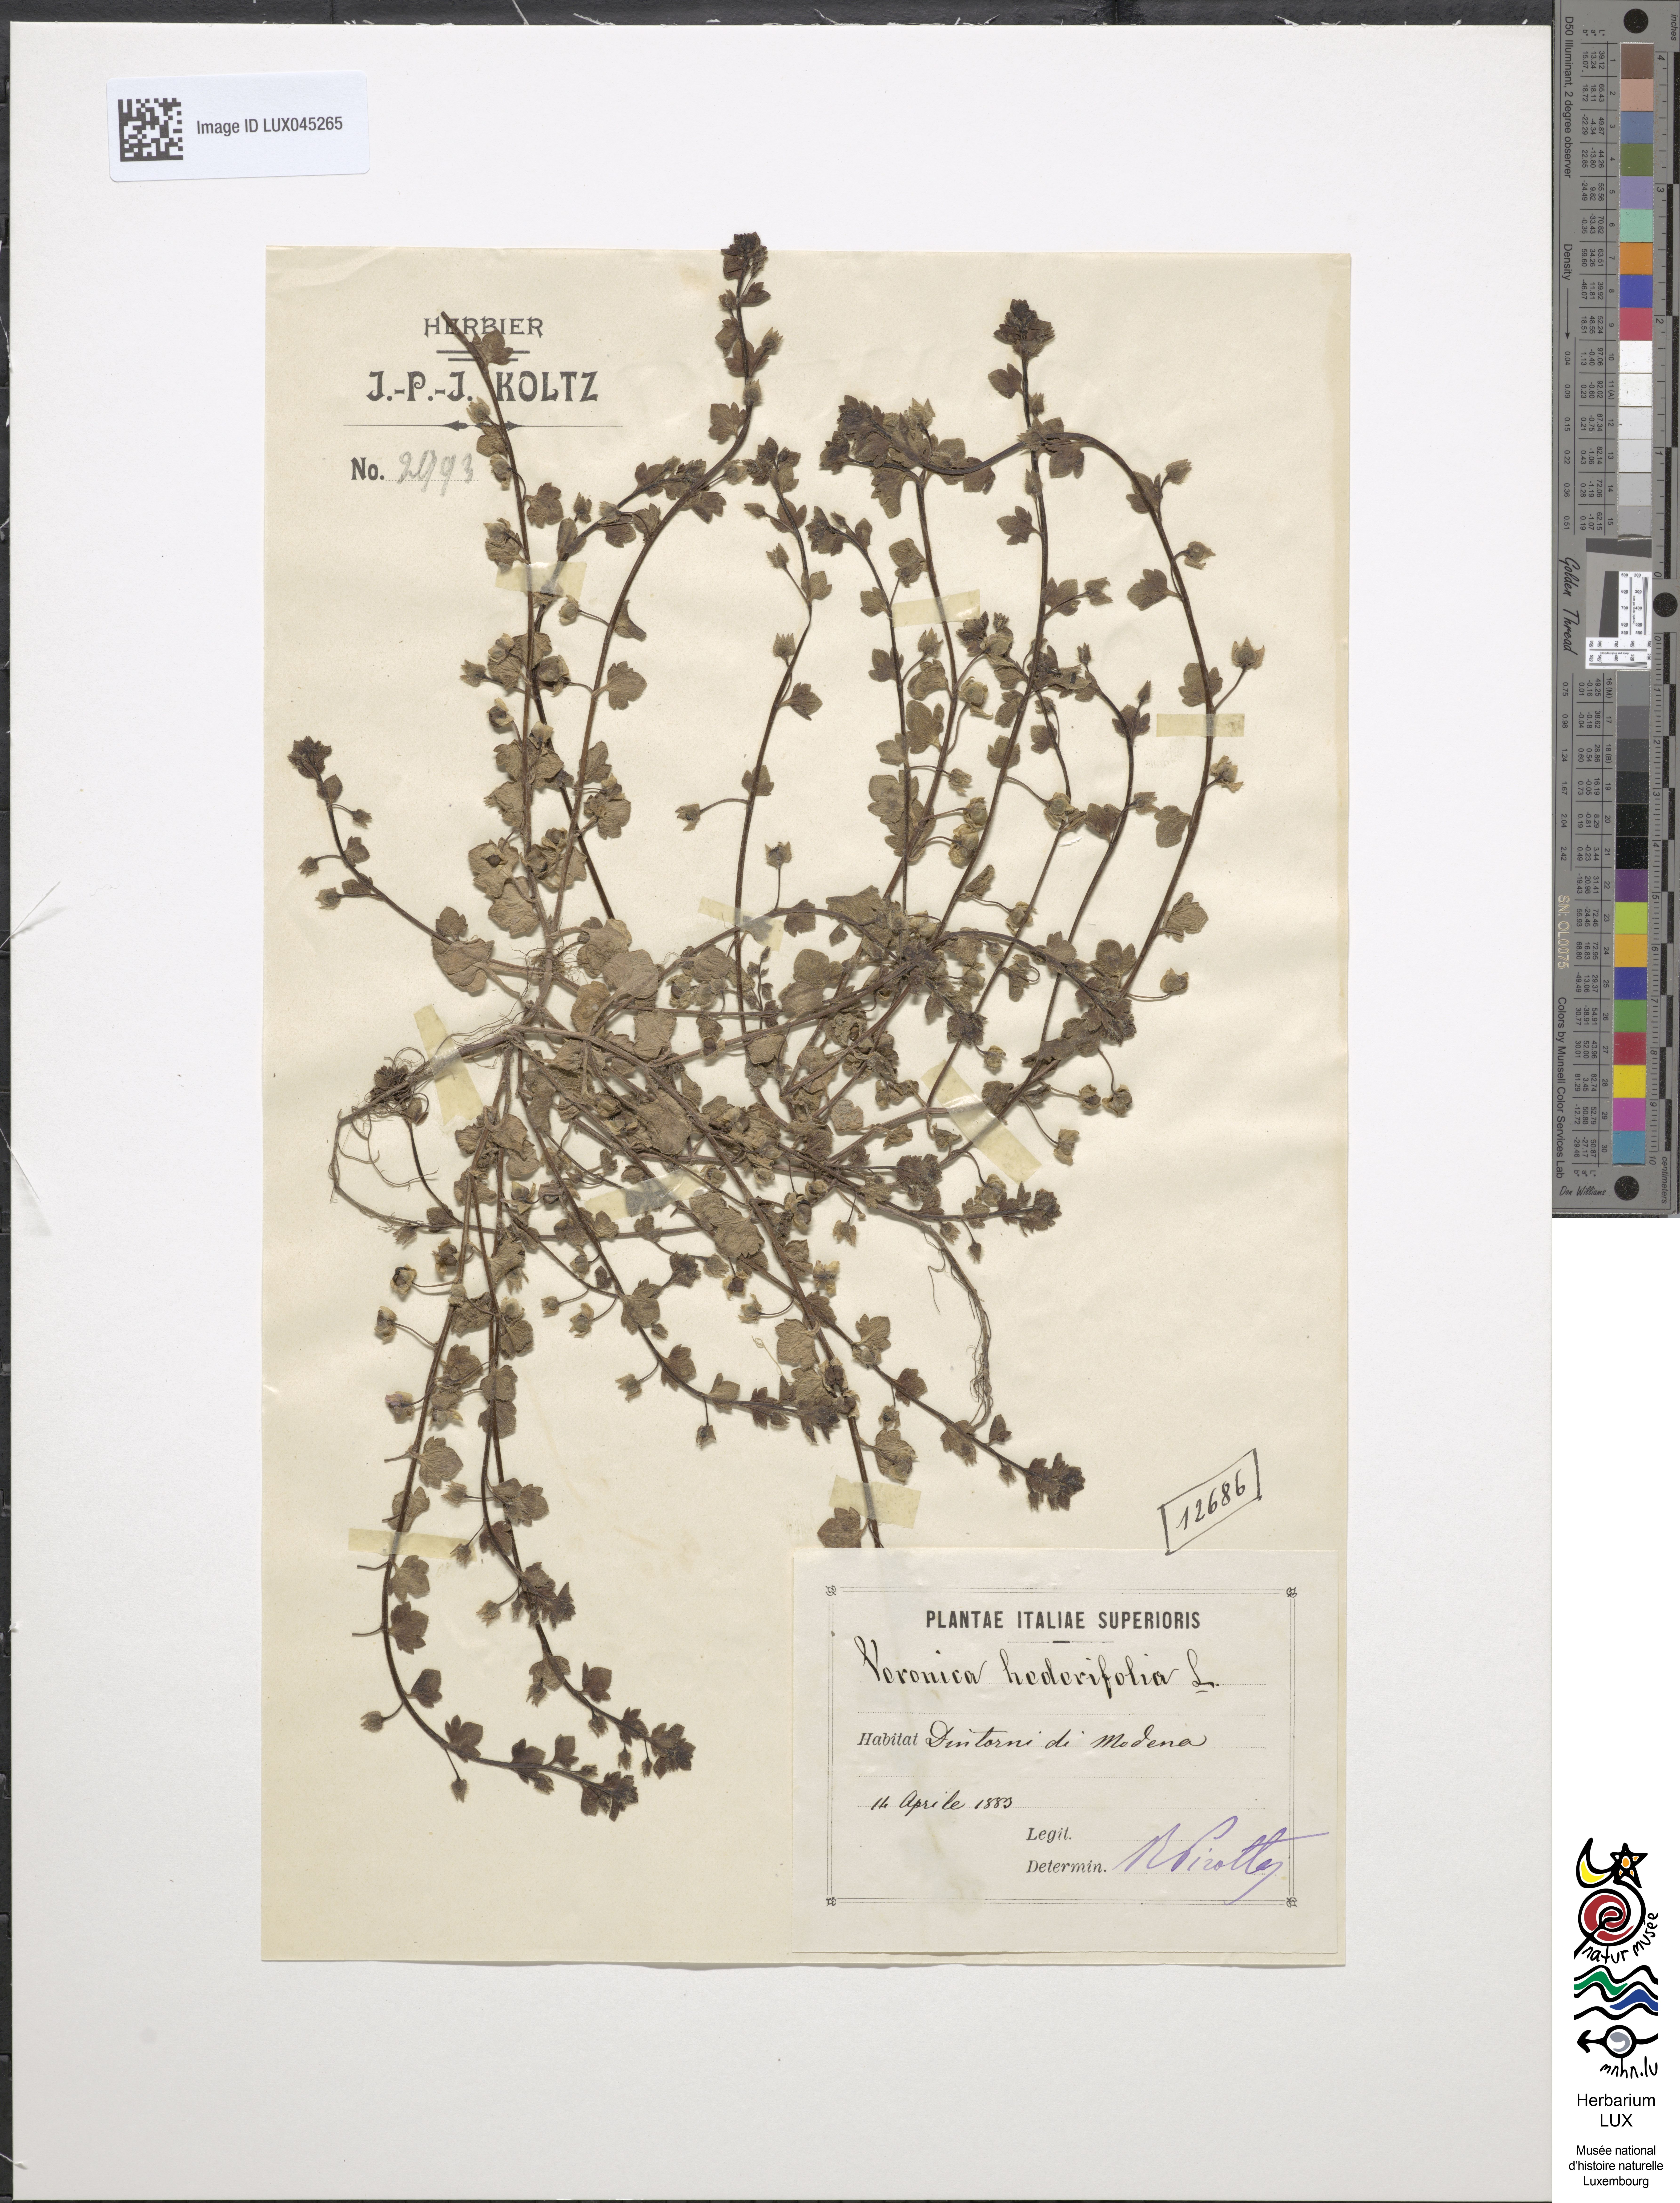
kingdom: Plantae
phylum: Tracheophyta
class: Magnoliopsida
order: Lamiales
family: Plantaginaceae
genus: Veronica
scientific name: Veronica hederifolia
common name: Ivy-leaved speedwell
